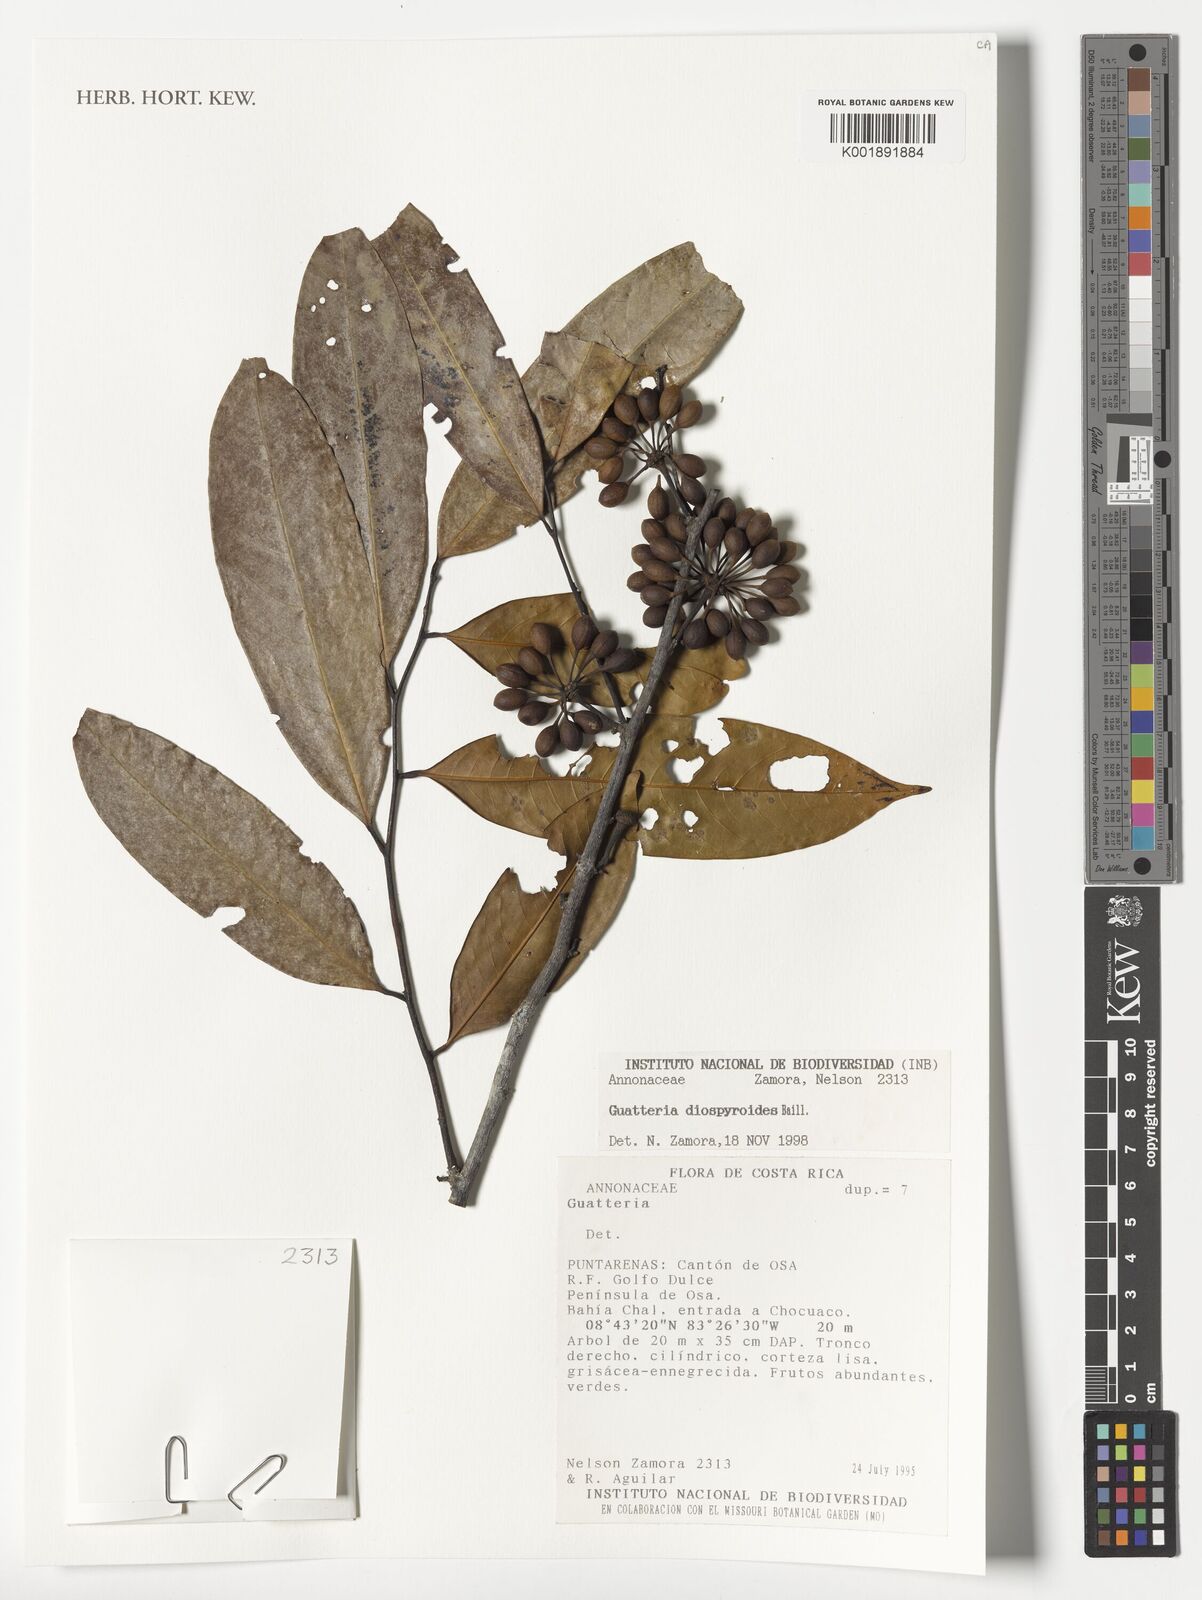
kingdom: Plantae
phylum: Tracheophyta
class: Magnoliopsida
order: Magnoliales
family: Annonaceae
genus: Guatteria
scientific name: Guatteria diospyroides
